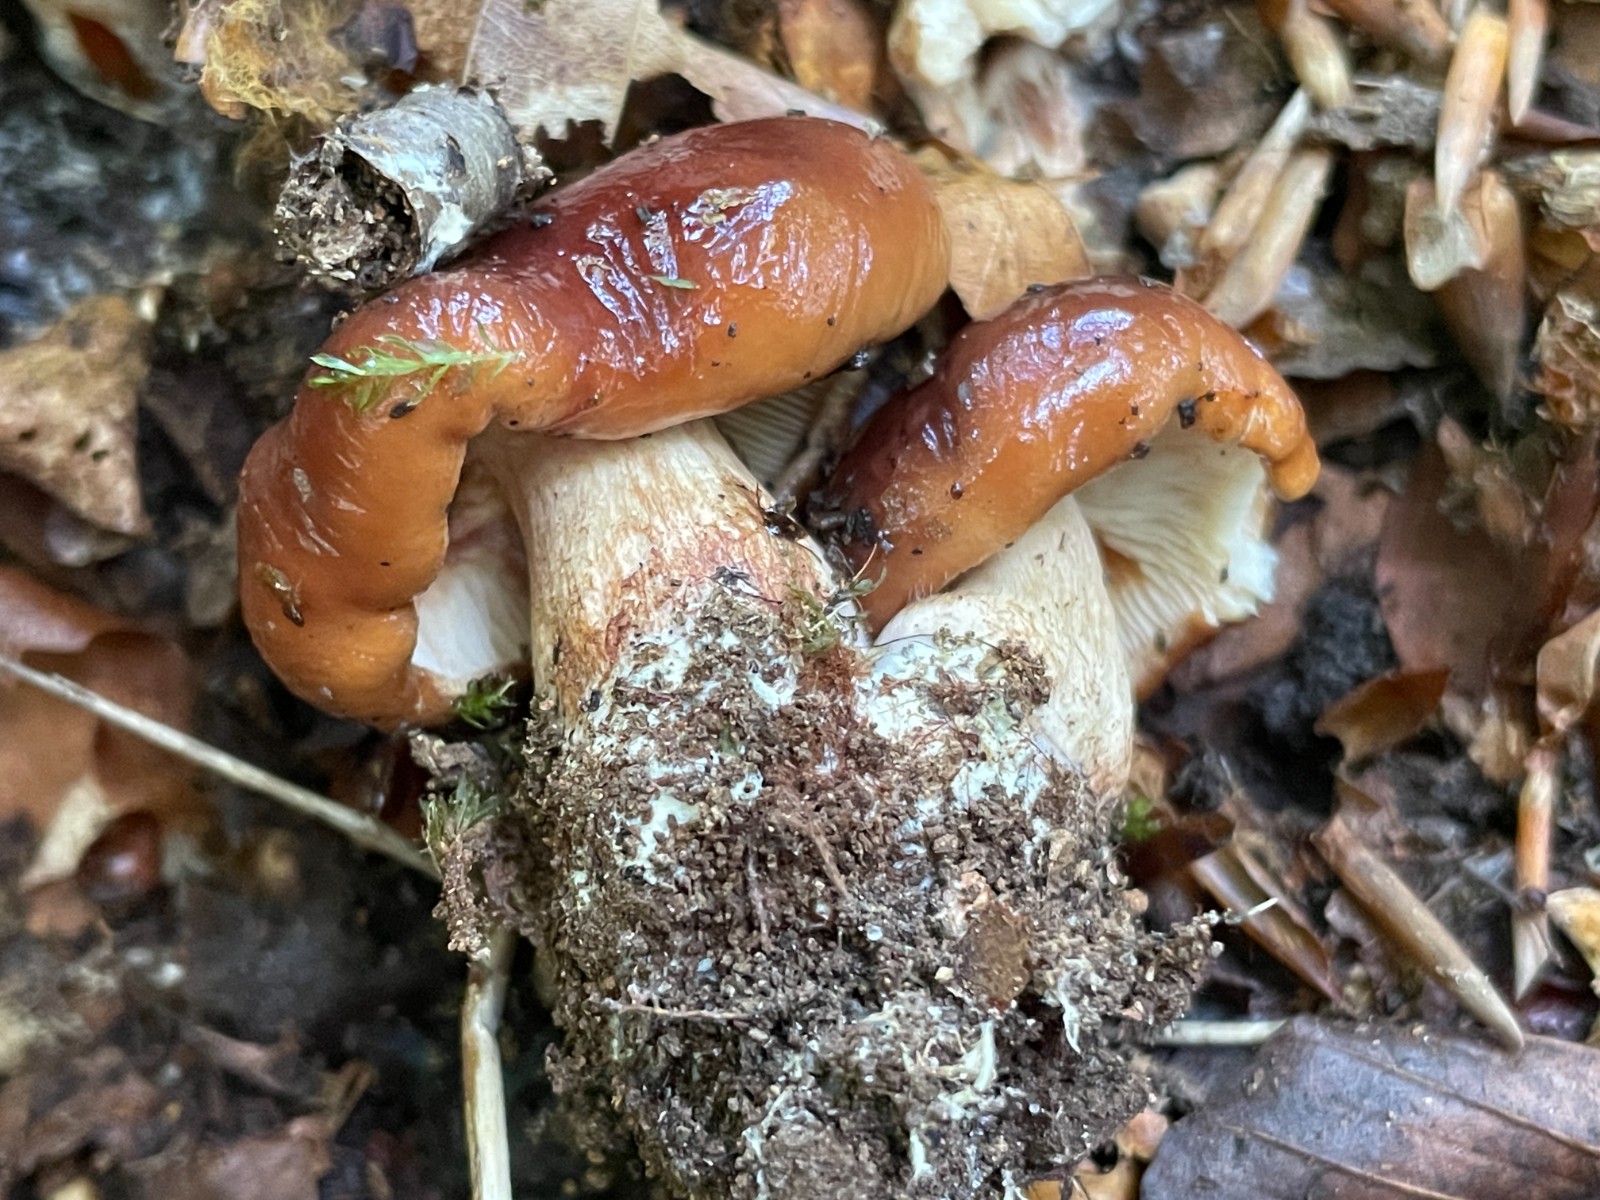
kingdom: Fungi
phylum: Basidiomycota
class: Agaricomycetes
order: Agaricales
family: Tricholomataceae
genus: Tricholoma
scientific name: Tricholoma ustale
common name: sveden ridderhat
